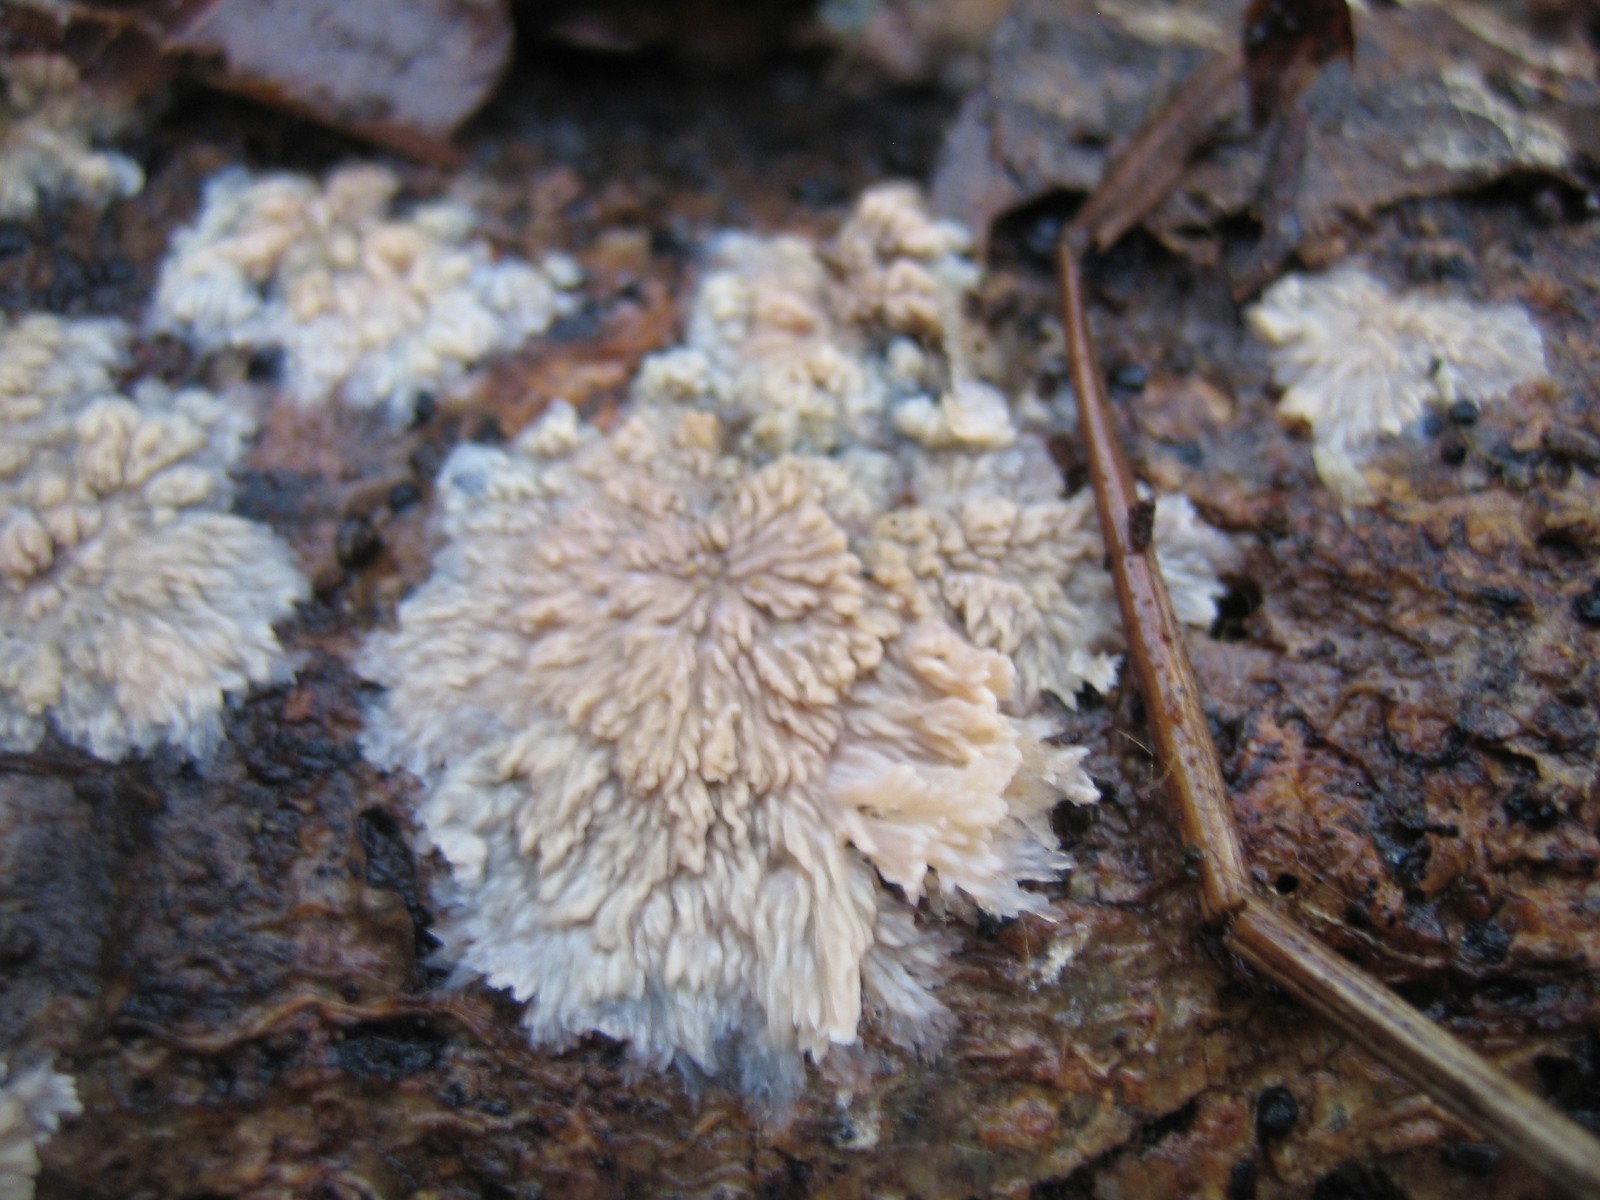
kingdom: Fungi
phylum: Basidiomycota
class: Agaricomycetes
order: Polyporales
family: Meruliaceae
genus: Phlebia
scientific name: Phlebia radiata
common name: stråle-åresvamp
